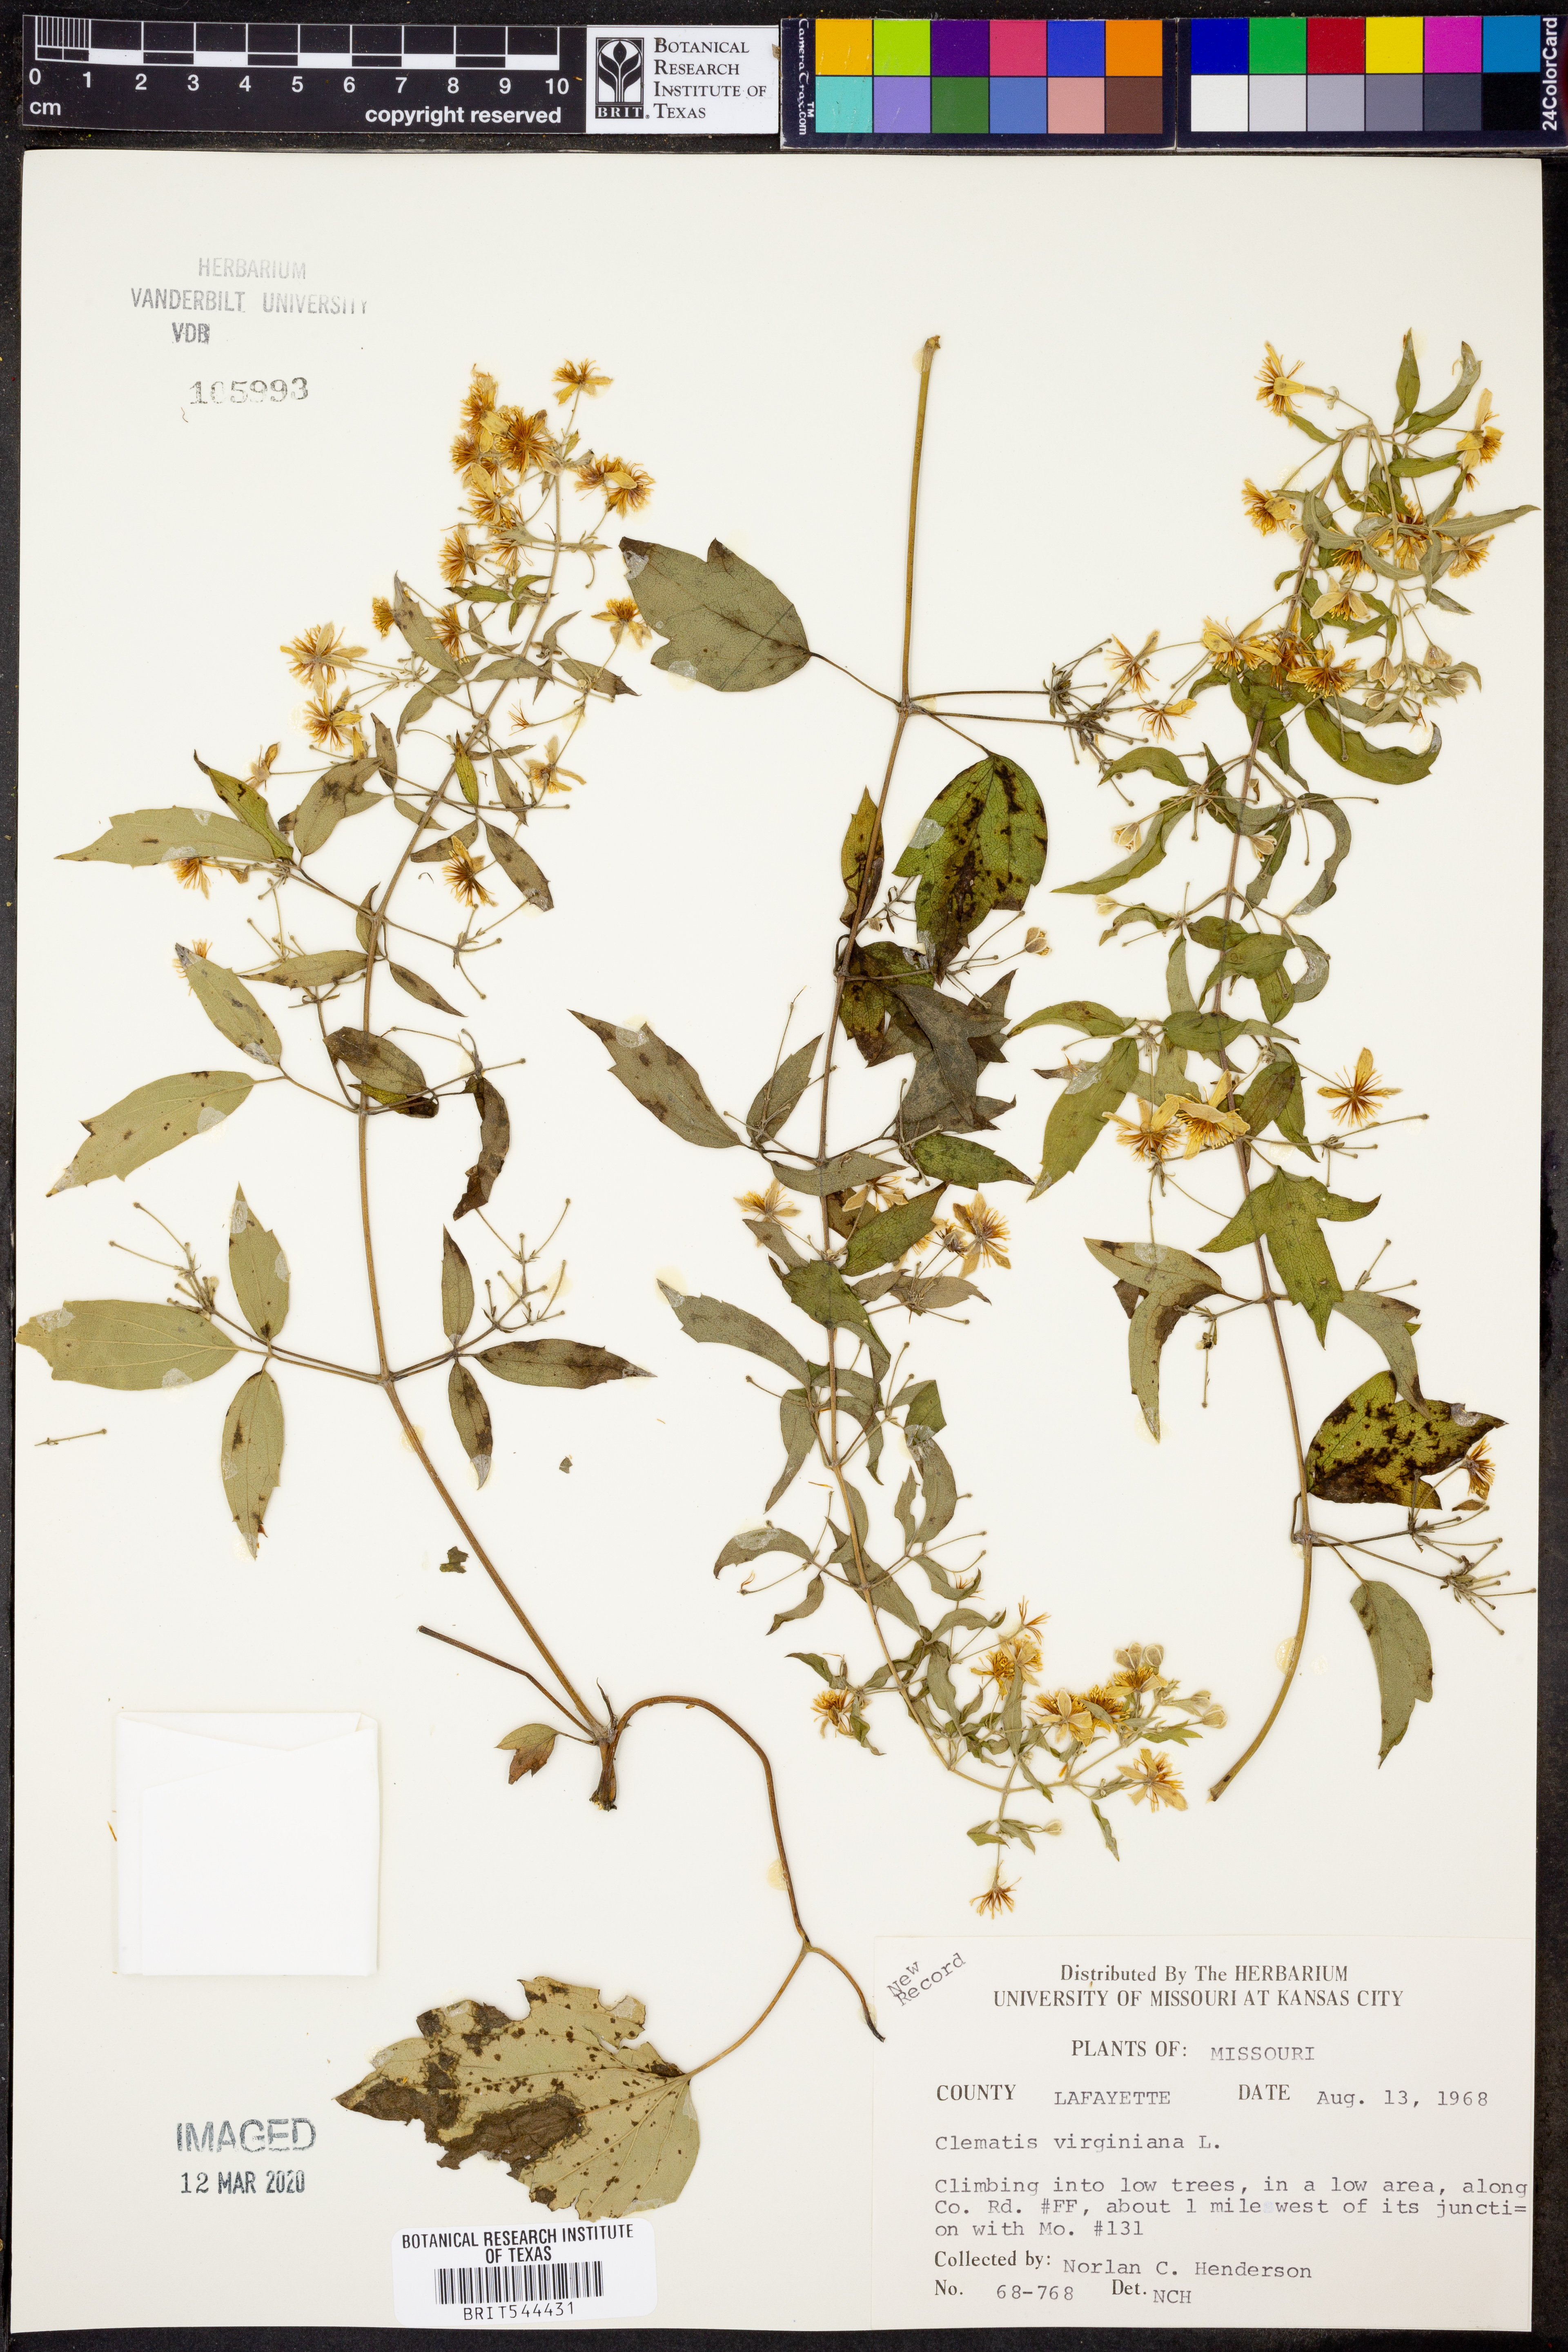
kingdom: Plantae
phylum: Tracheophyta
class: Magnoliopsida
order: Ranunculales
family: Ranunculaceae
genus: Clematis
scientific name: Clematis virginiana
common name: Virgin's-bower
